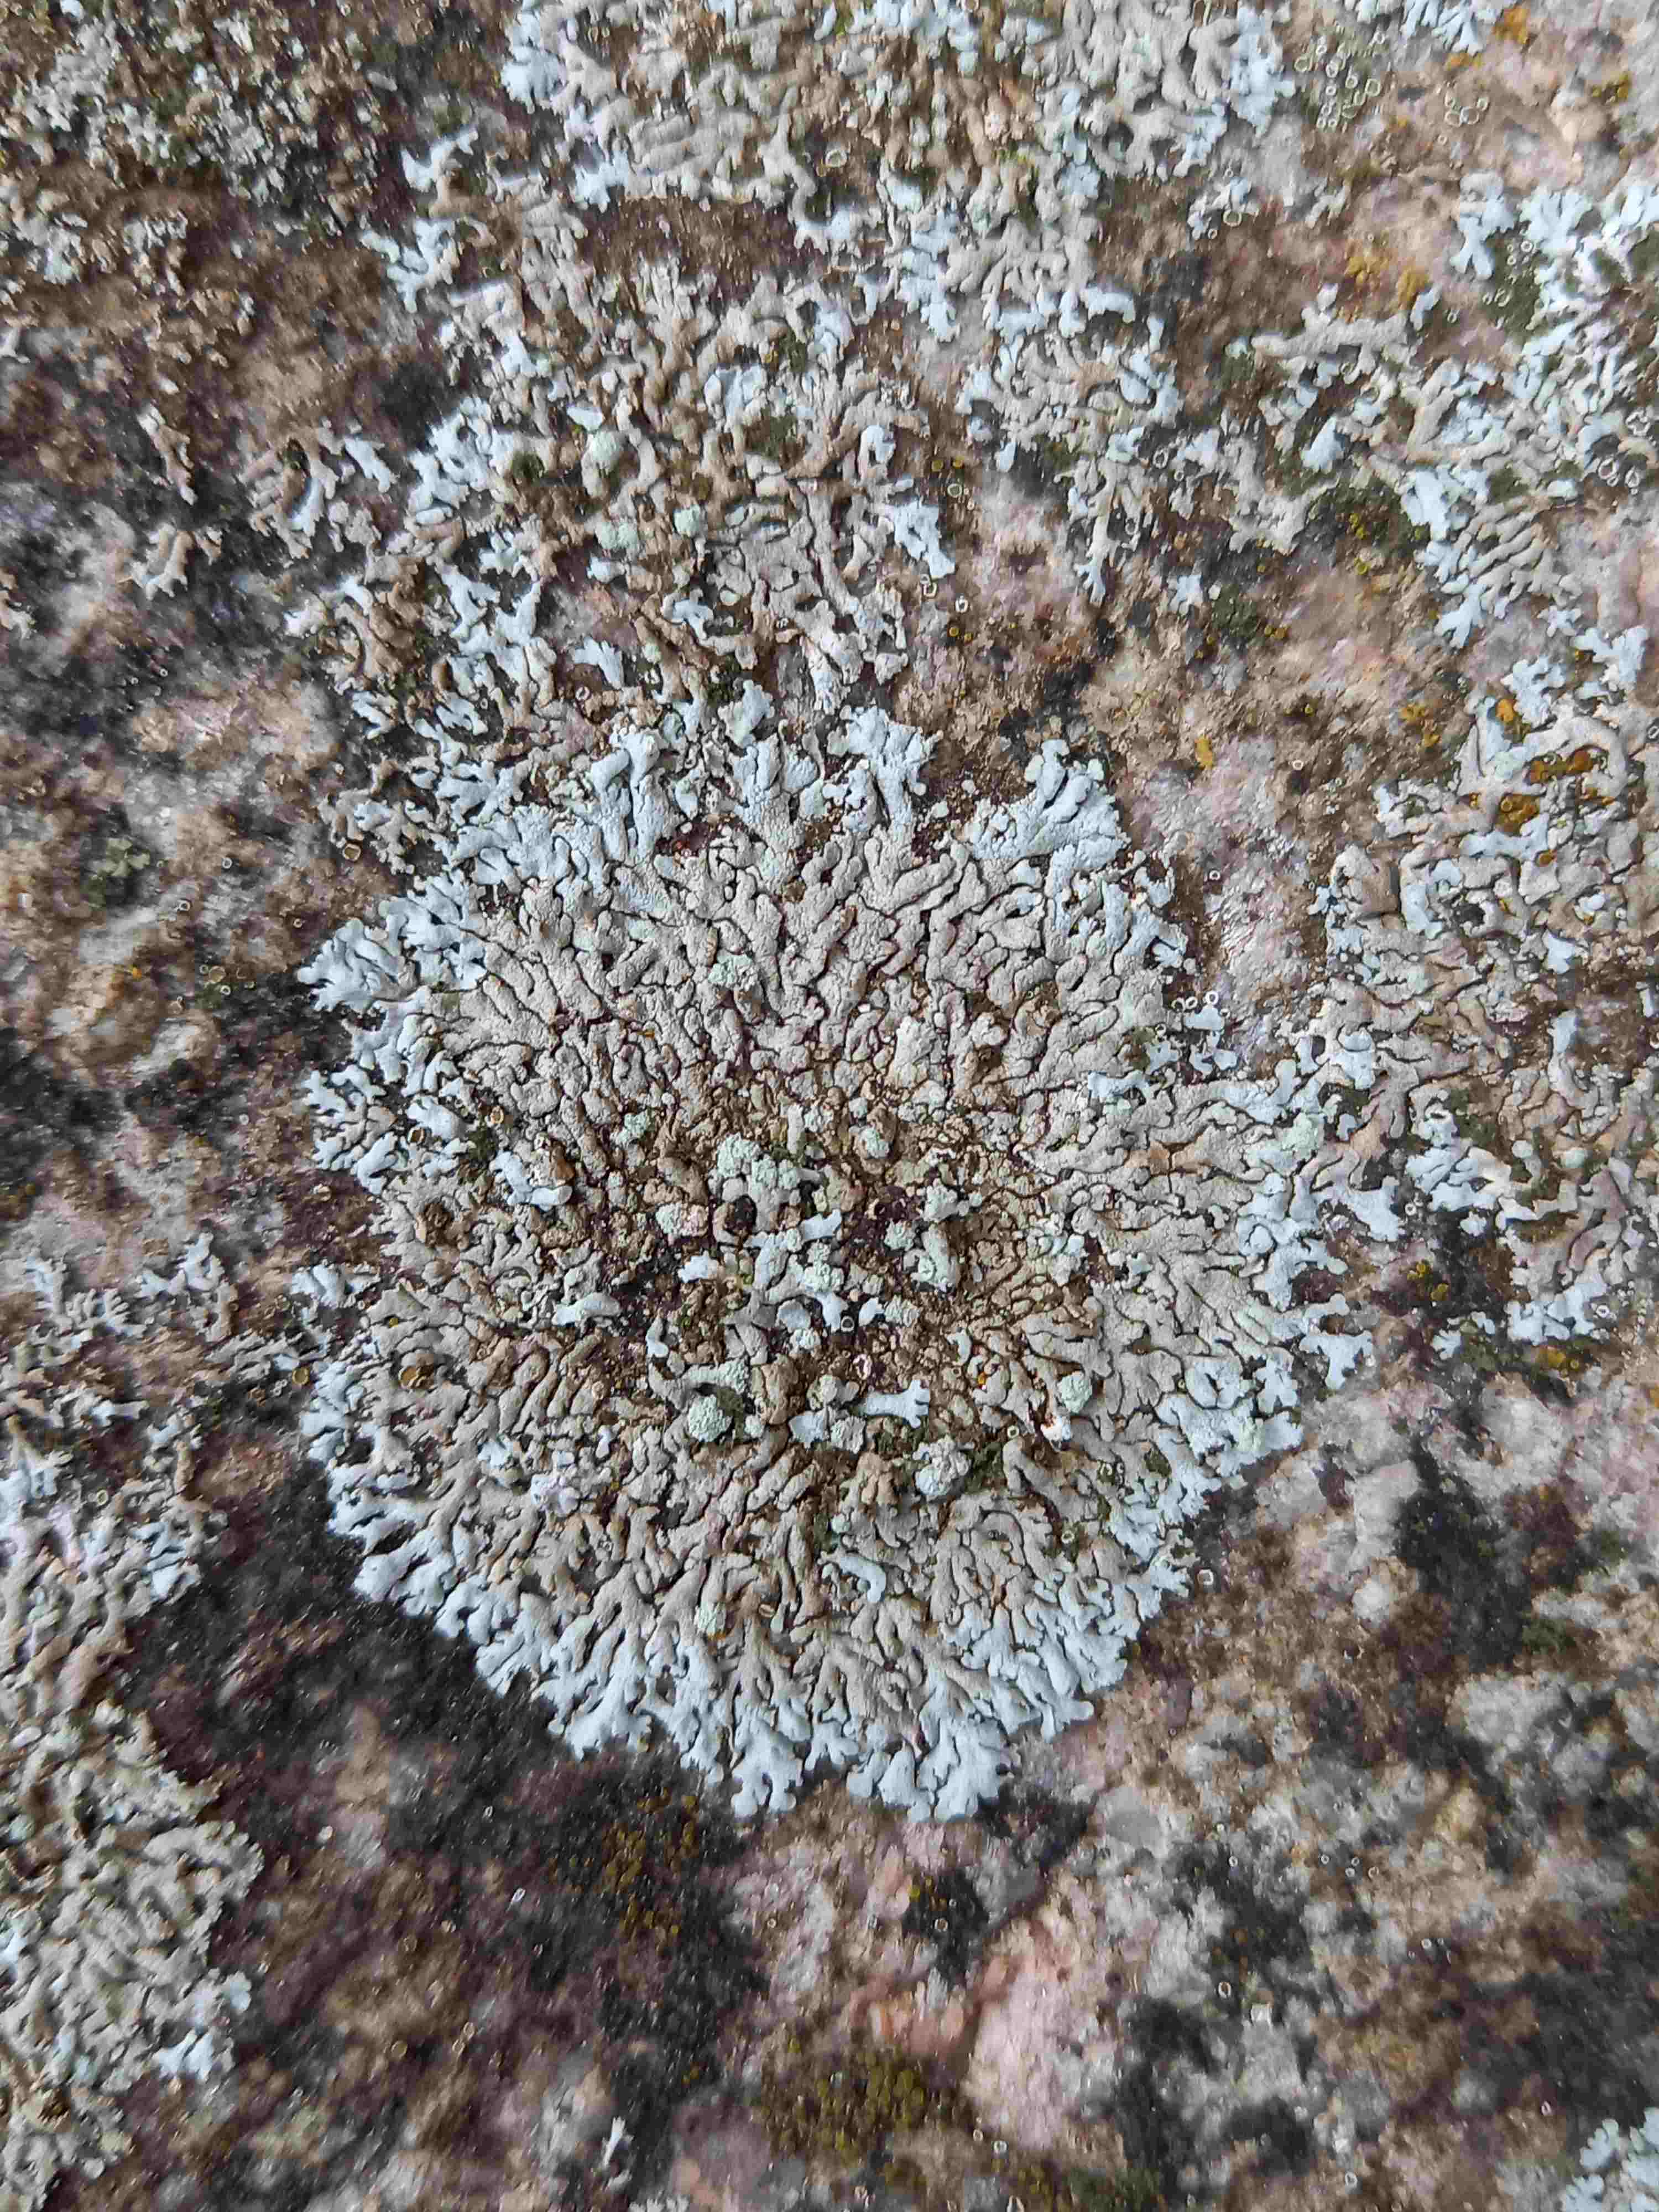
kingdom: Fungi
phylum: Ascomycota
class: Lecanoromycetes
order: Caliciales
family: Physciaceae
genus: Physcia
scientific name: Physcia caesia
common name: blågrå rosetlav
